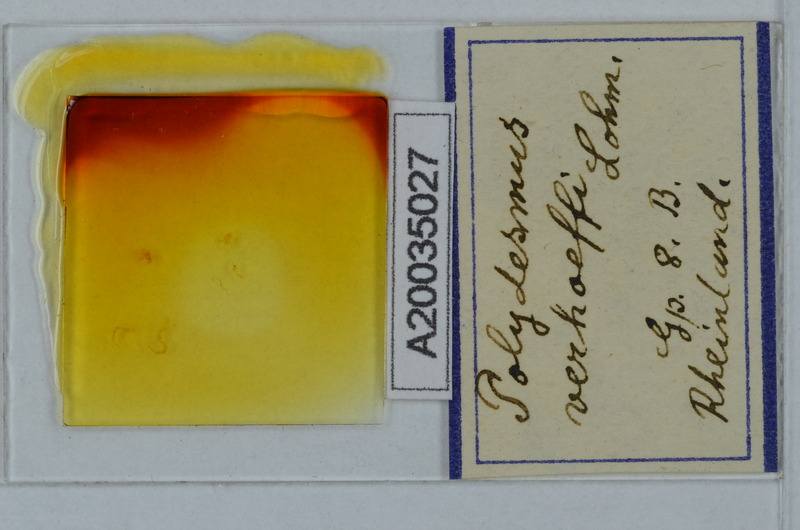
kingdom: Animalia
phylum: Arthropoda
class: Diplopoda
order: Polydesmida
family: Polydesmidae
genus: Polydesmus
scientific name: Polydesmus angustus
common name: Flat millipede
